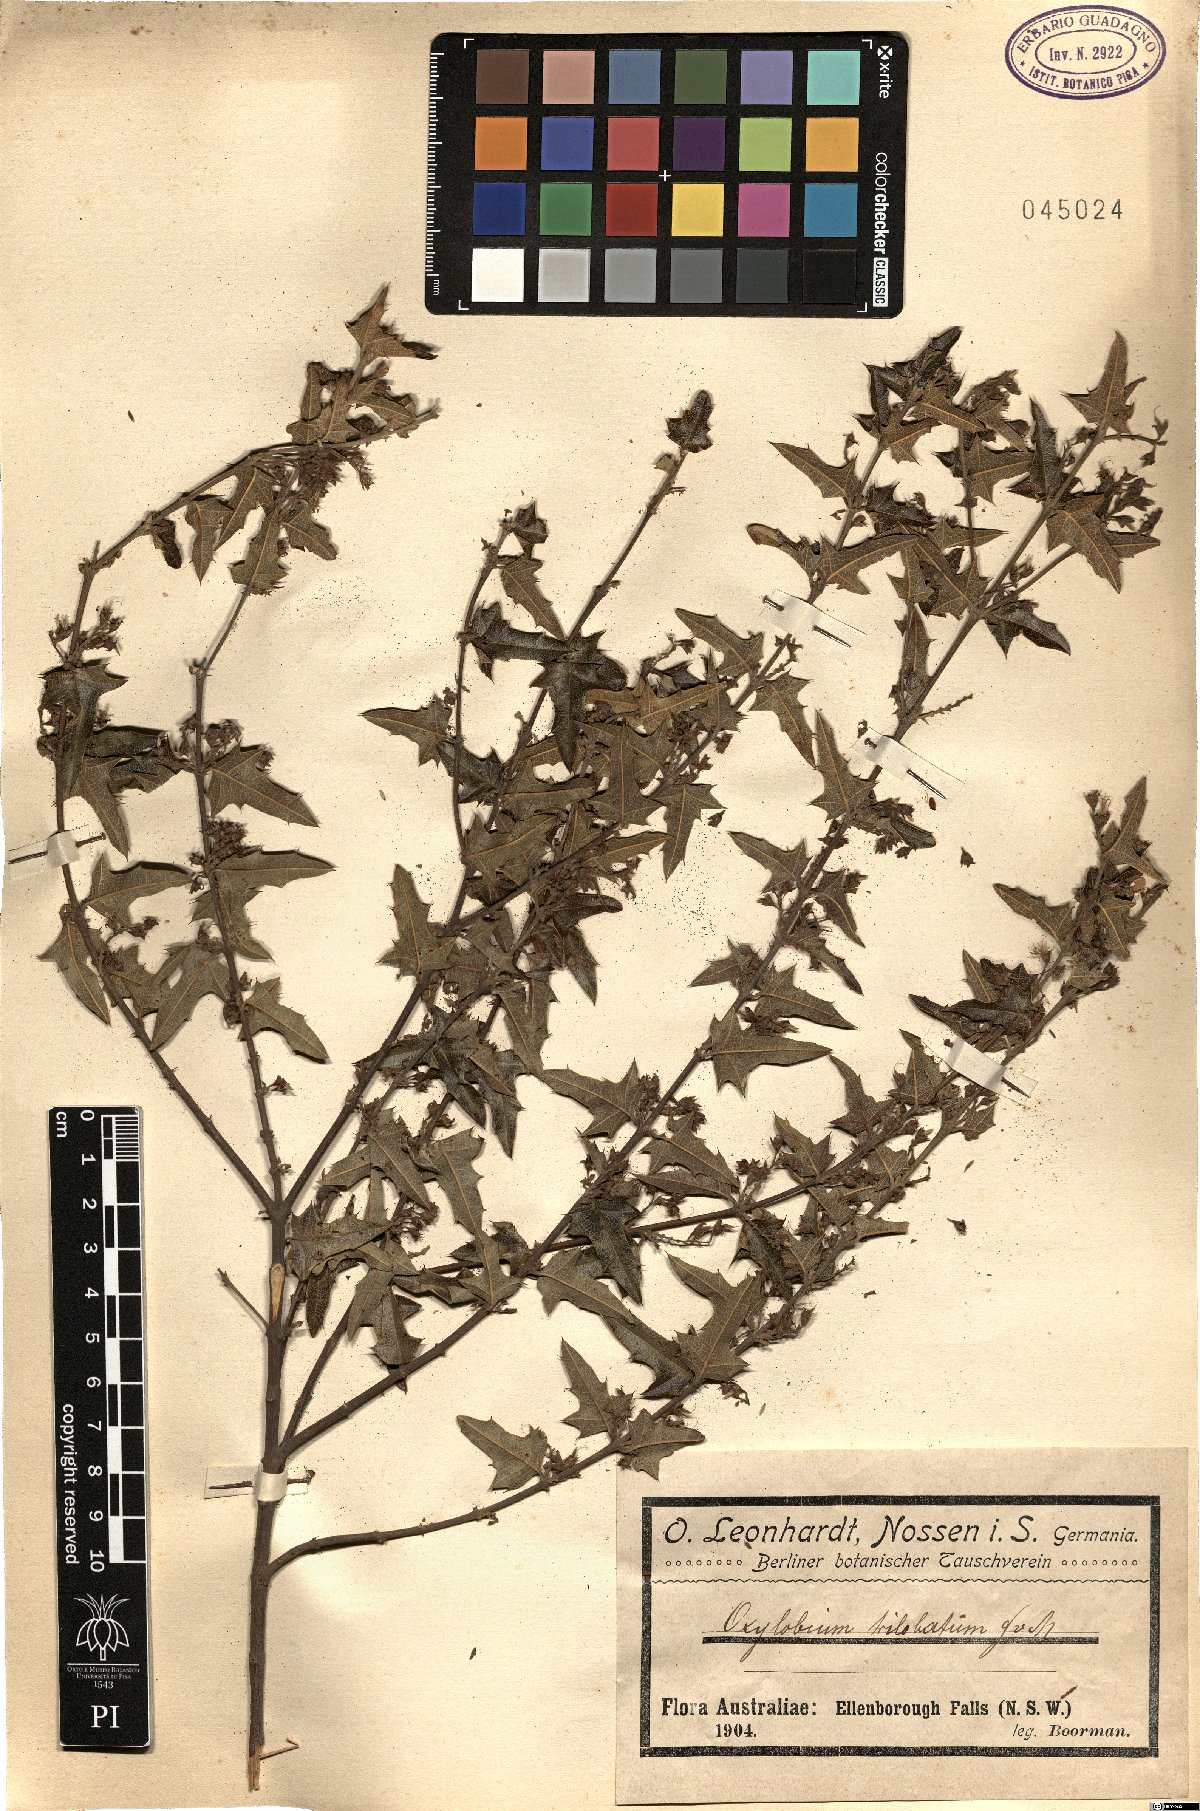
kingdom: Plantae
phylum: Tracheophyta
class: Magnoliopsida
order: Fabales
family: Fabaceae
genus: Podolobium
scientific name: Podolobium ilicifolium
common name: Native holly
